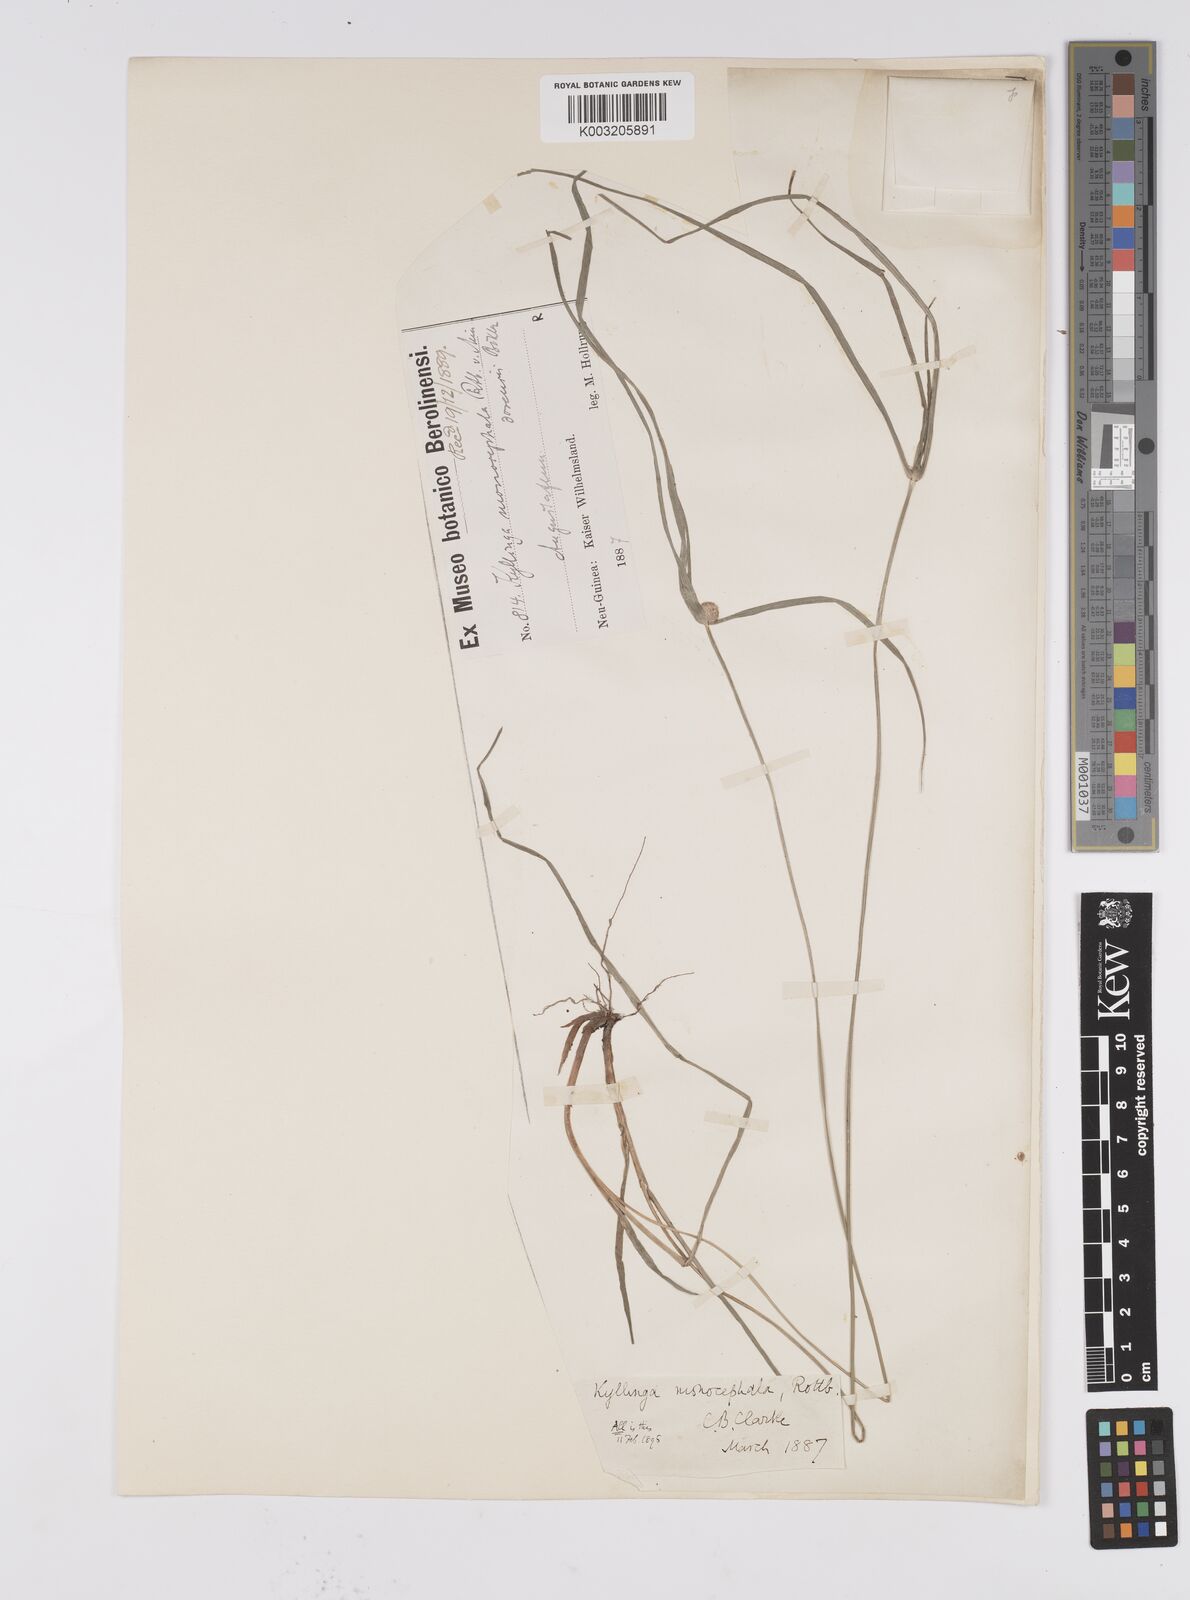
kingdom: Plantae
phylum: Tracheophyta
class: Liliopsida
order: Poales
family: Cyperaceae
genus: Cyperus
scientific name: Cyperus nemoralis
